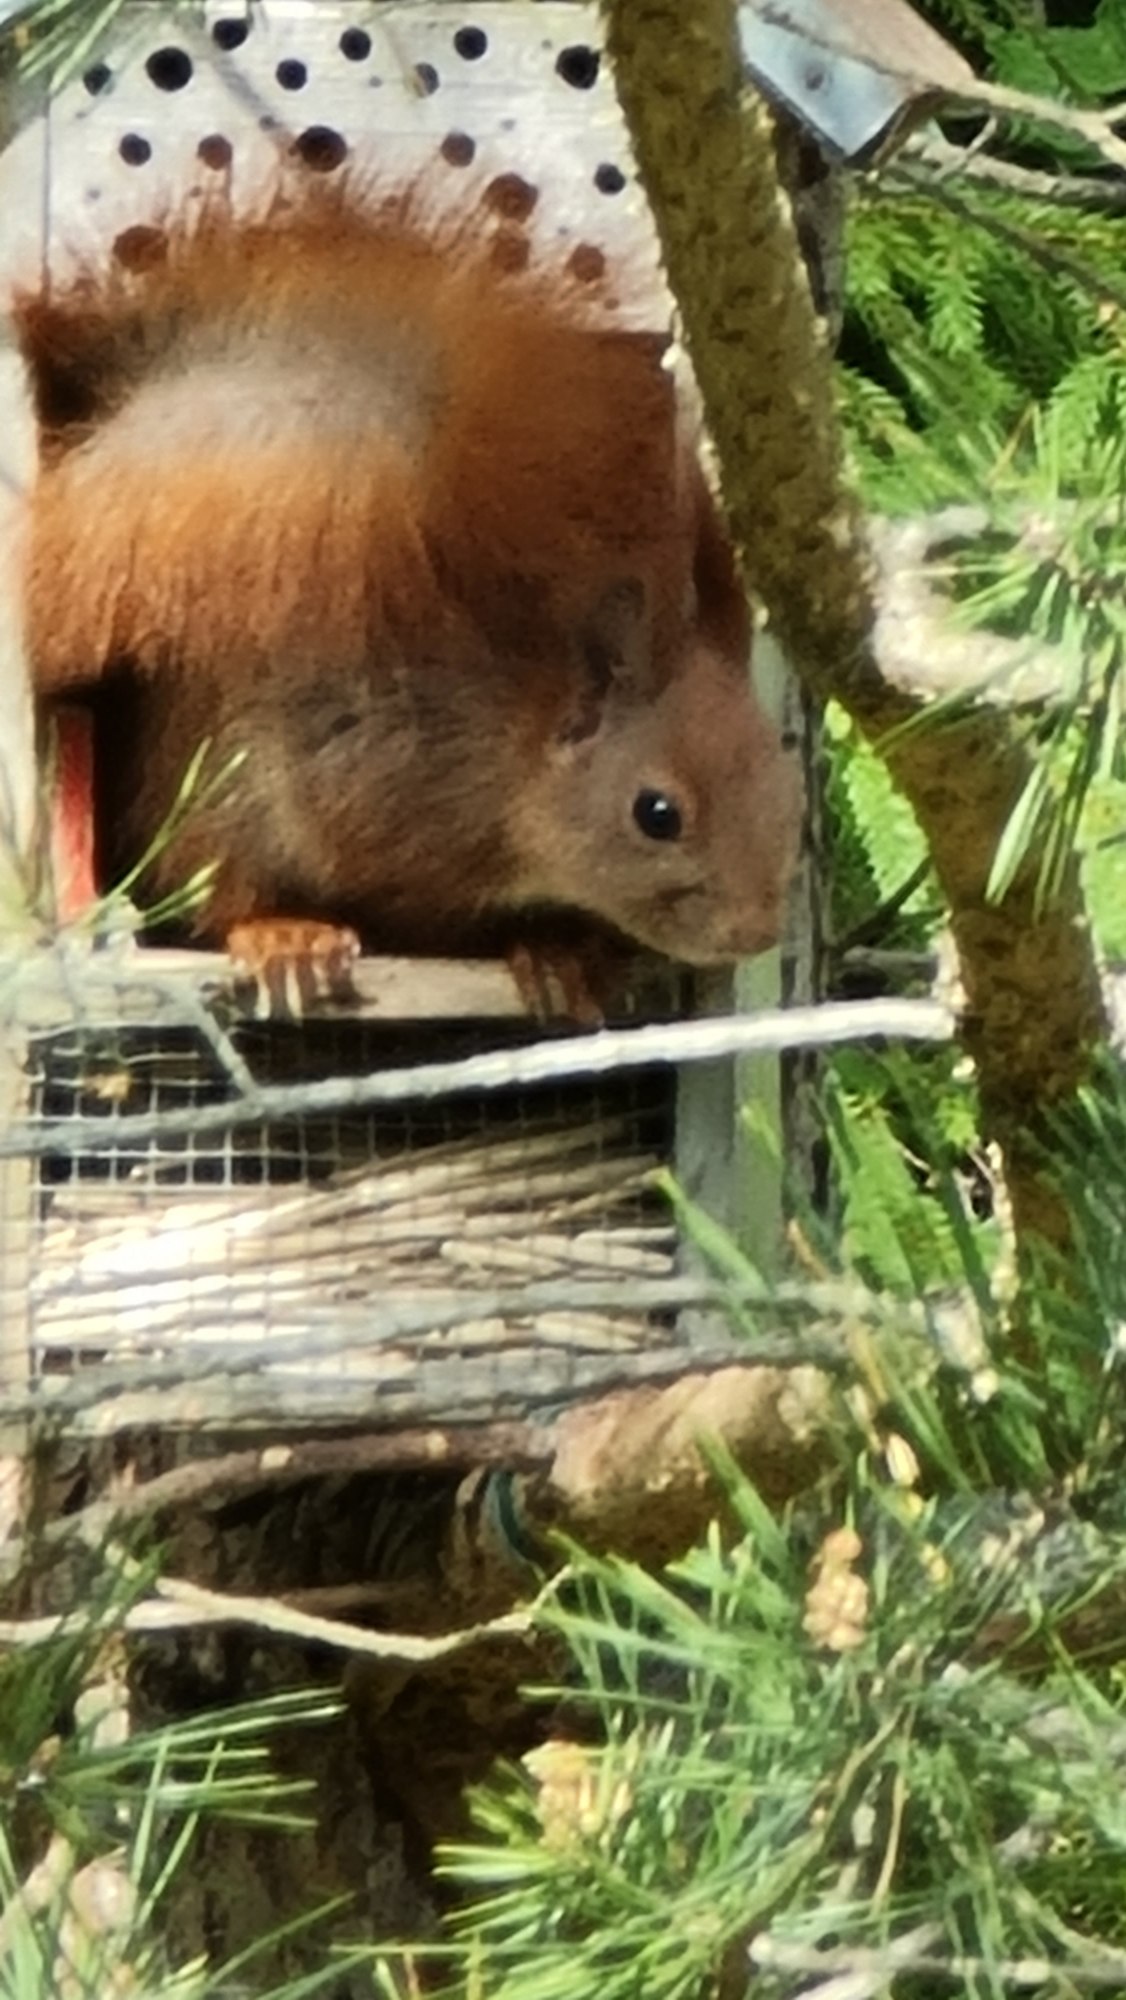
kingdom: Animalia
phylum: Chordata
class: Mammalia
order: Rodentia
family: Sciuridae
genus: Sciurus
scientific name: Sciurus vulgaris
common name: Egern
